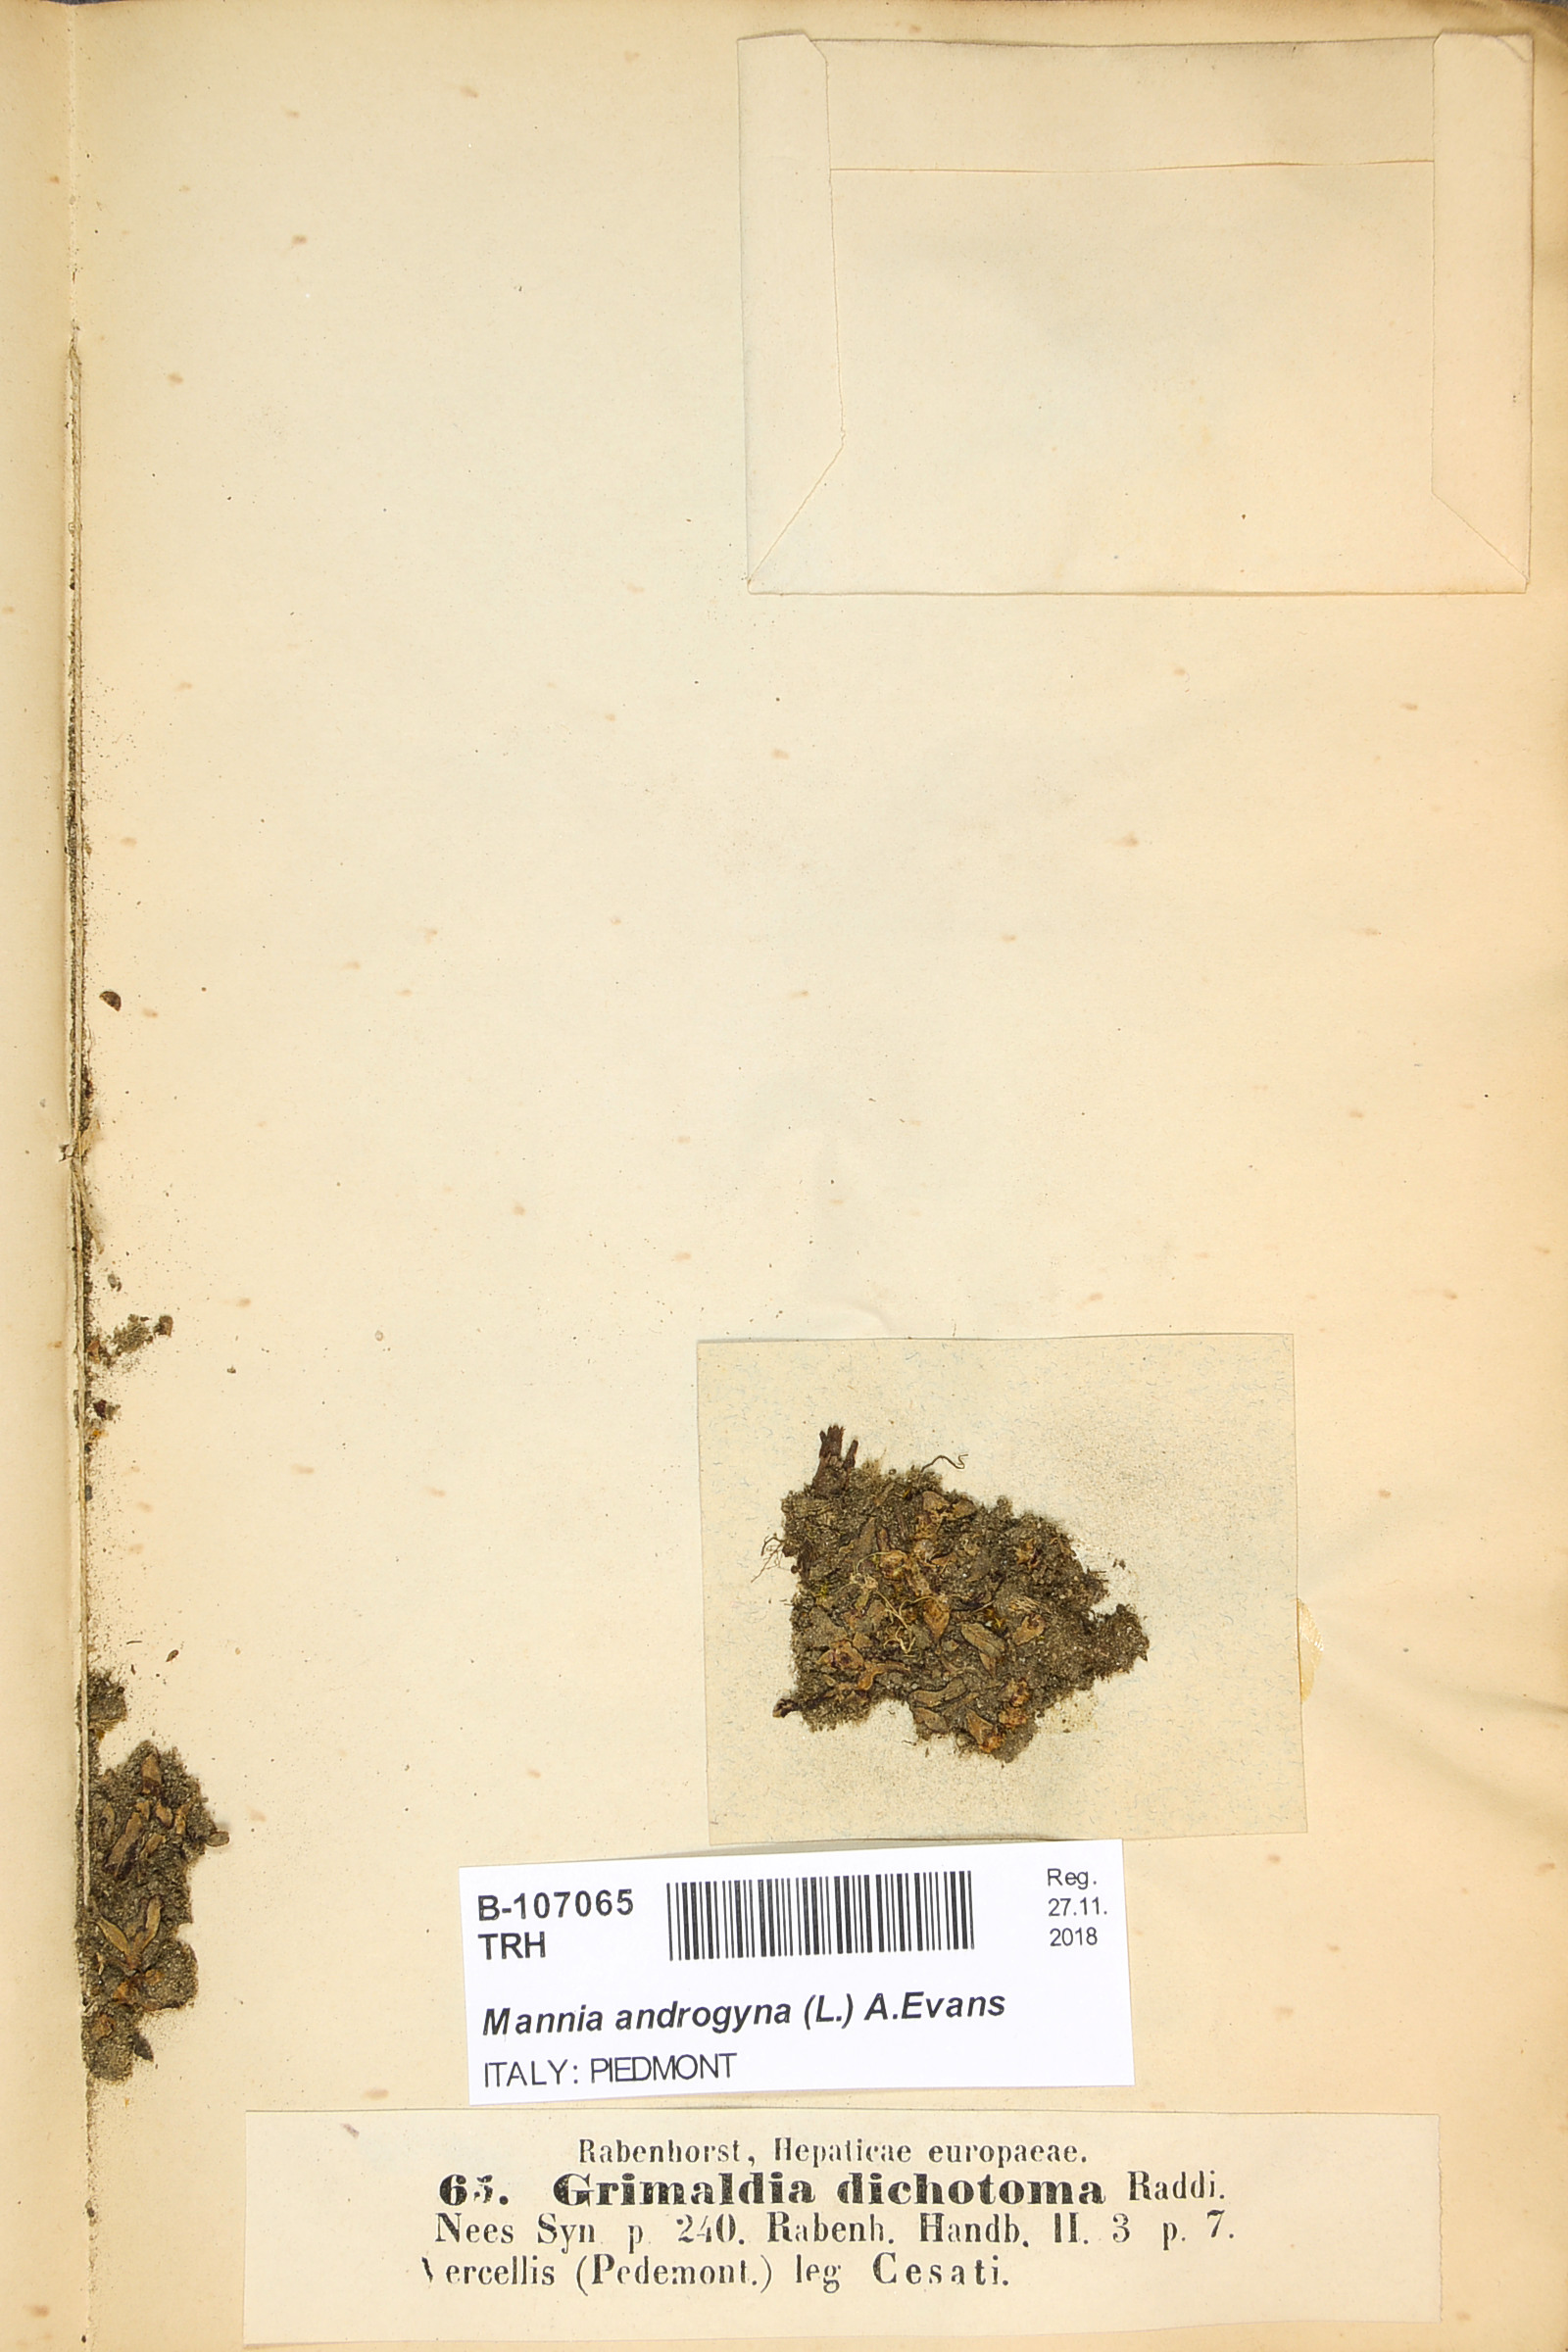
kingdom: Plantae
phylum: Marchantiophyta
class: Marchantiopsida
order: Marchantiales
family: Aytoniaceae
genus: Mannia
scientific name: Mannia androgyna
